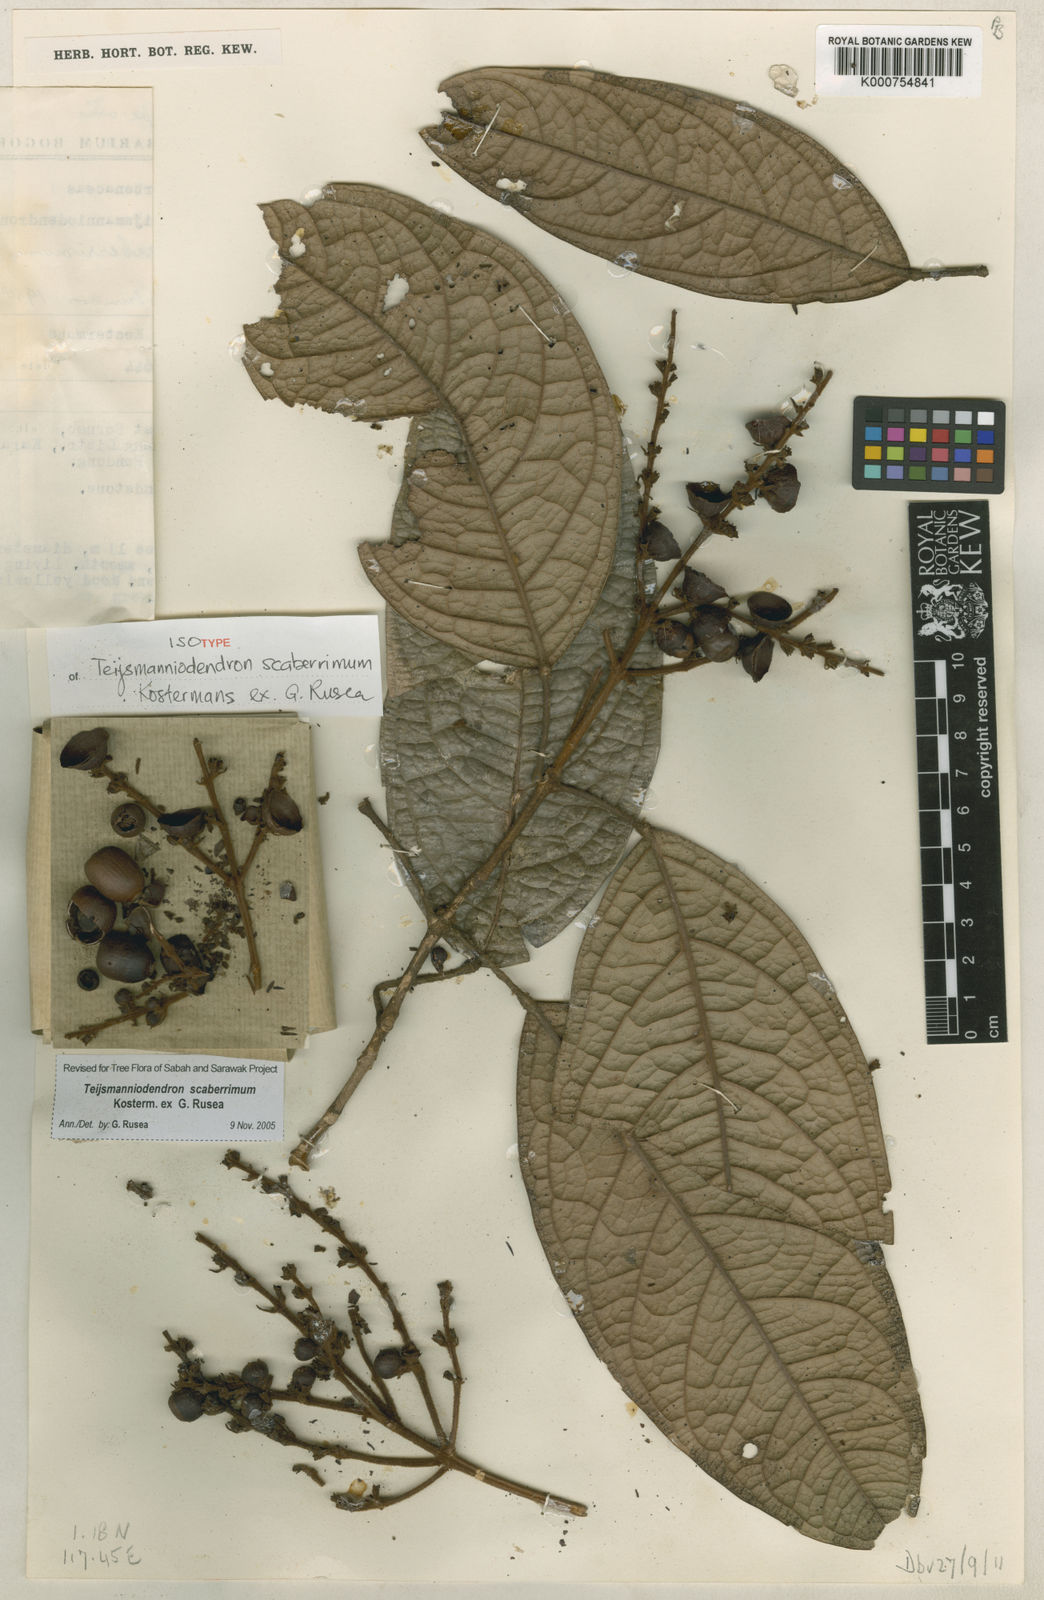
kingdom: Plantae
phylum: Tracheophyta
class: Magnoliopsida
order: Lamiales
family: Lamiaceae
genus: Teijsmanniodendron
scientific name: Teijsmanniodendron scaberrimum
